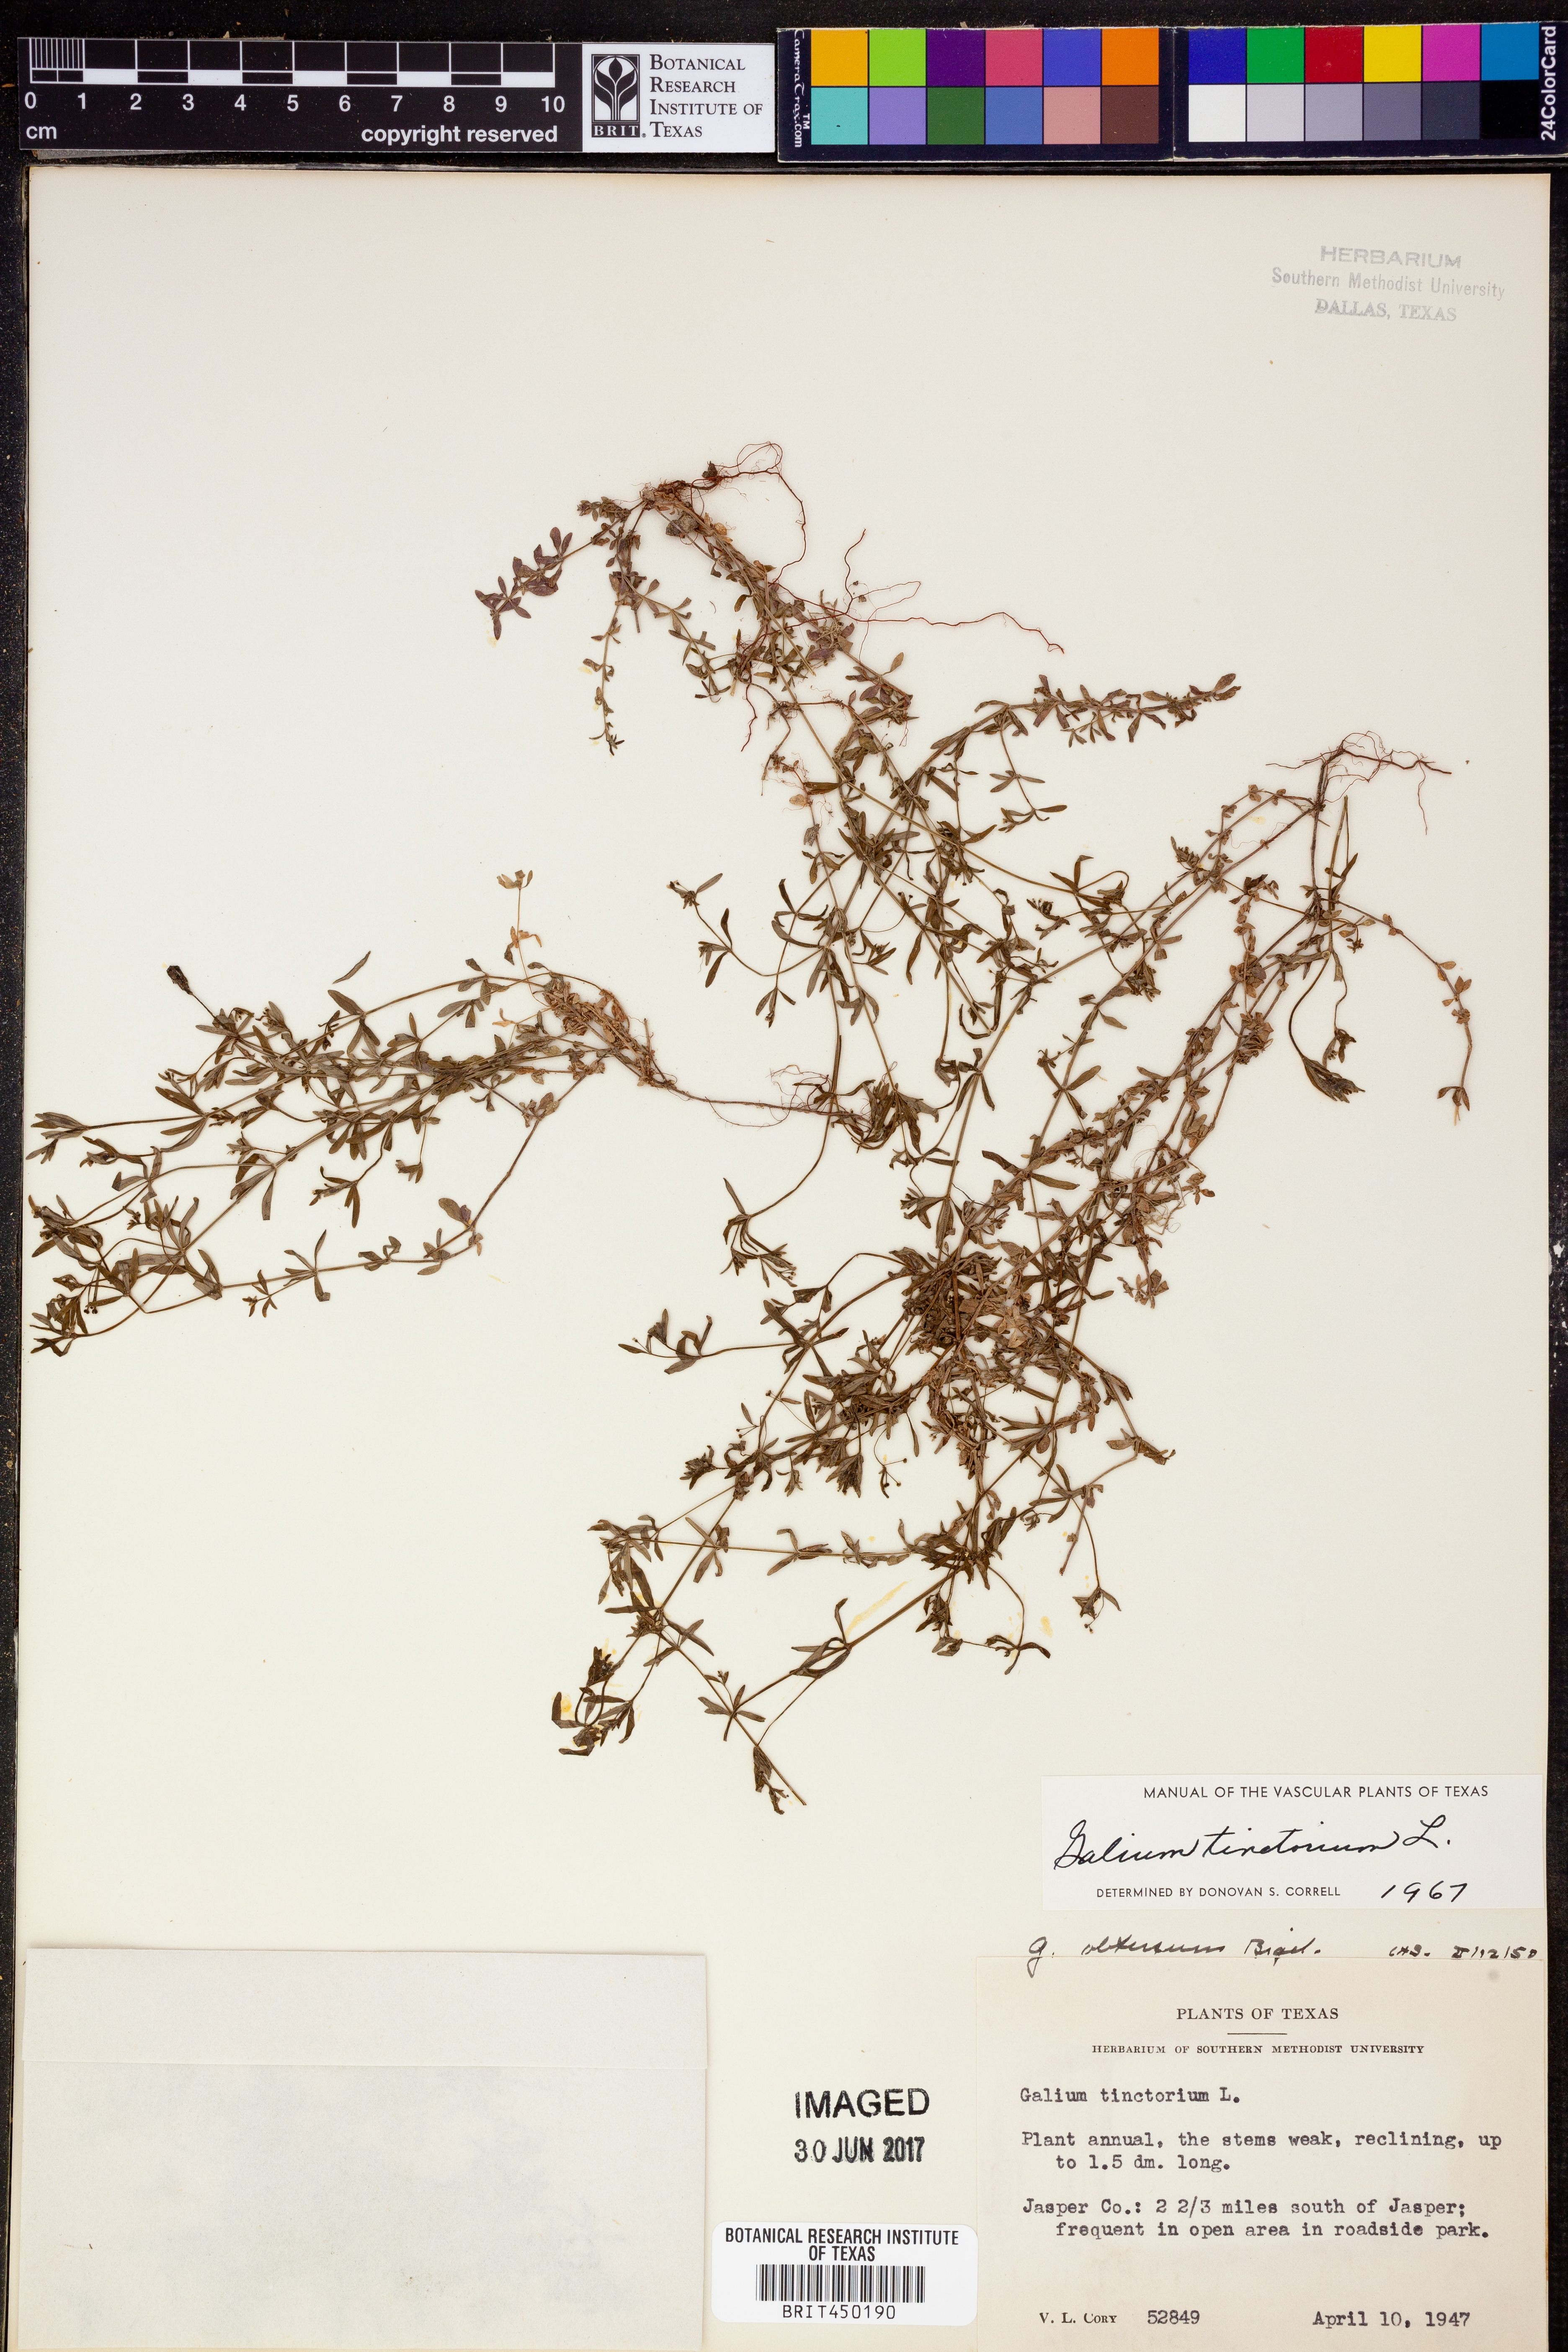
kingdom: Plantae
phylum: Tracheophyta
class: Magnoliopsida
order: Gentianales
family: Rubiaceae
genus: Asperula
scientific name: Asperula tinctoria
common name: Dyer's woodruff
